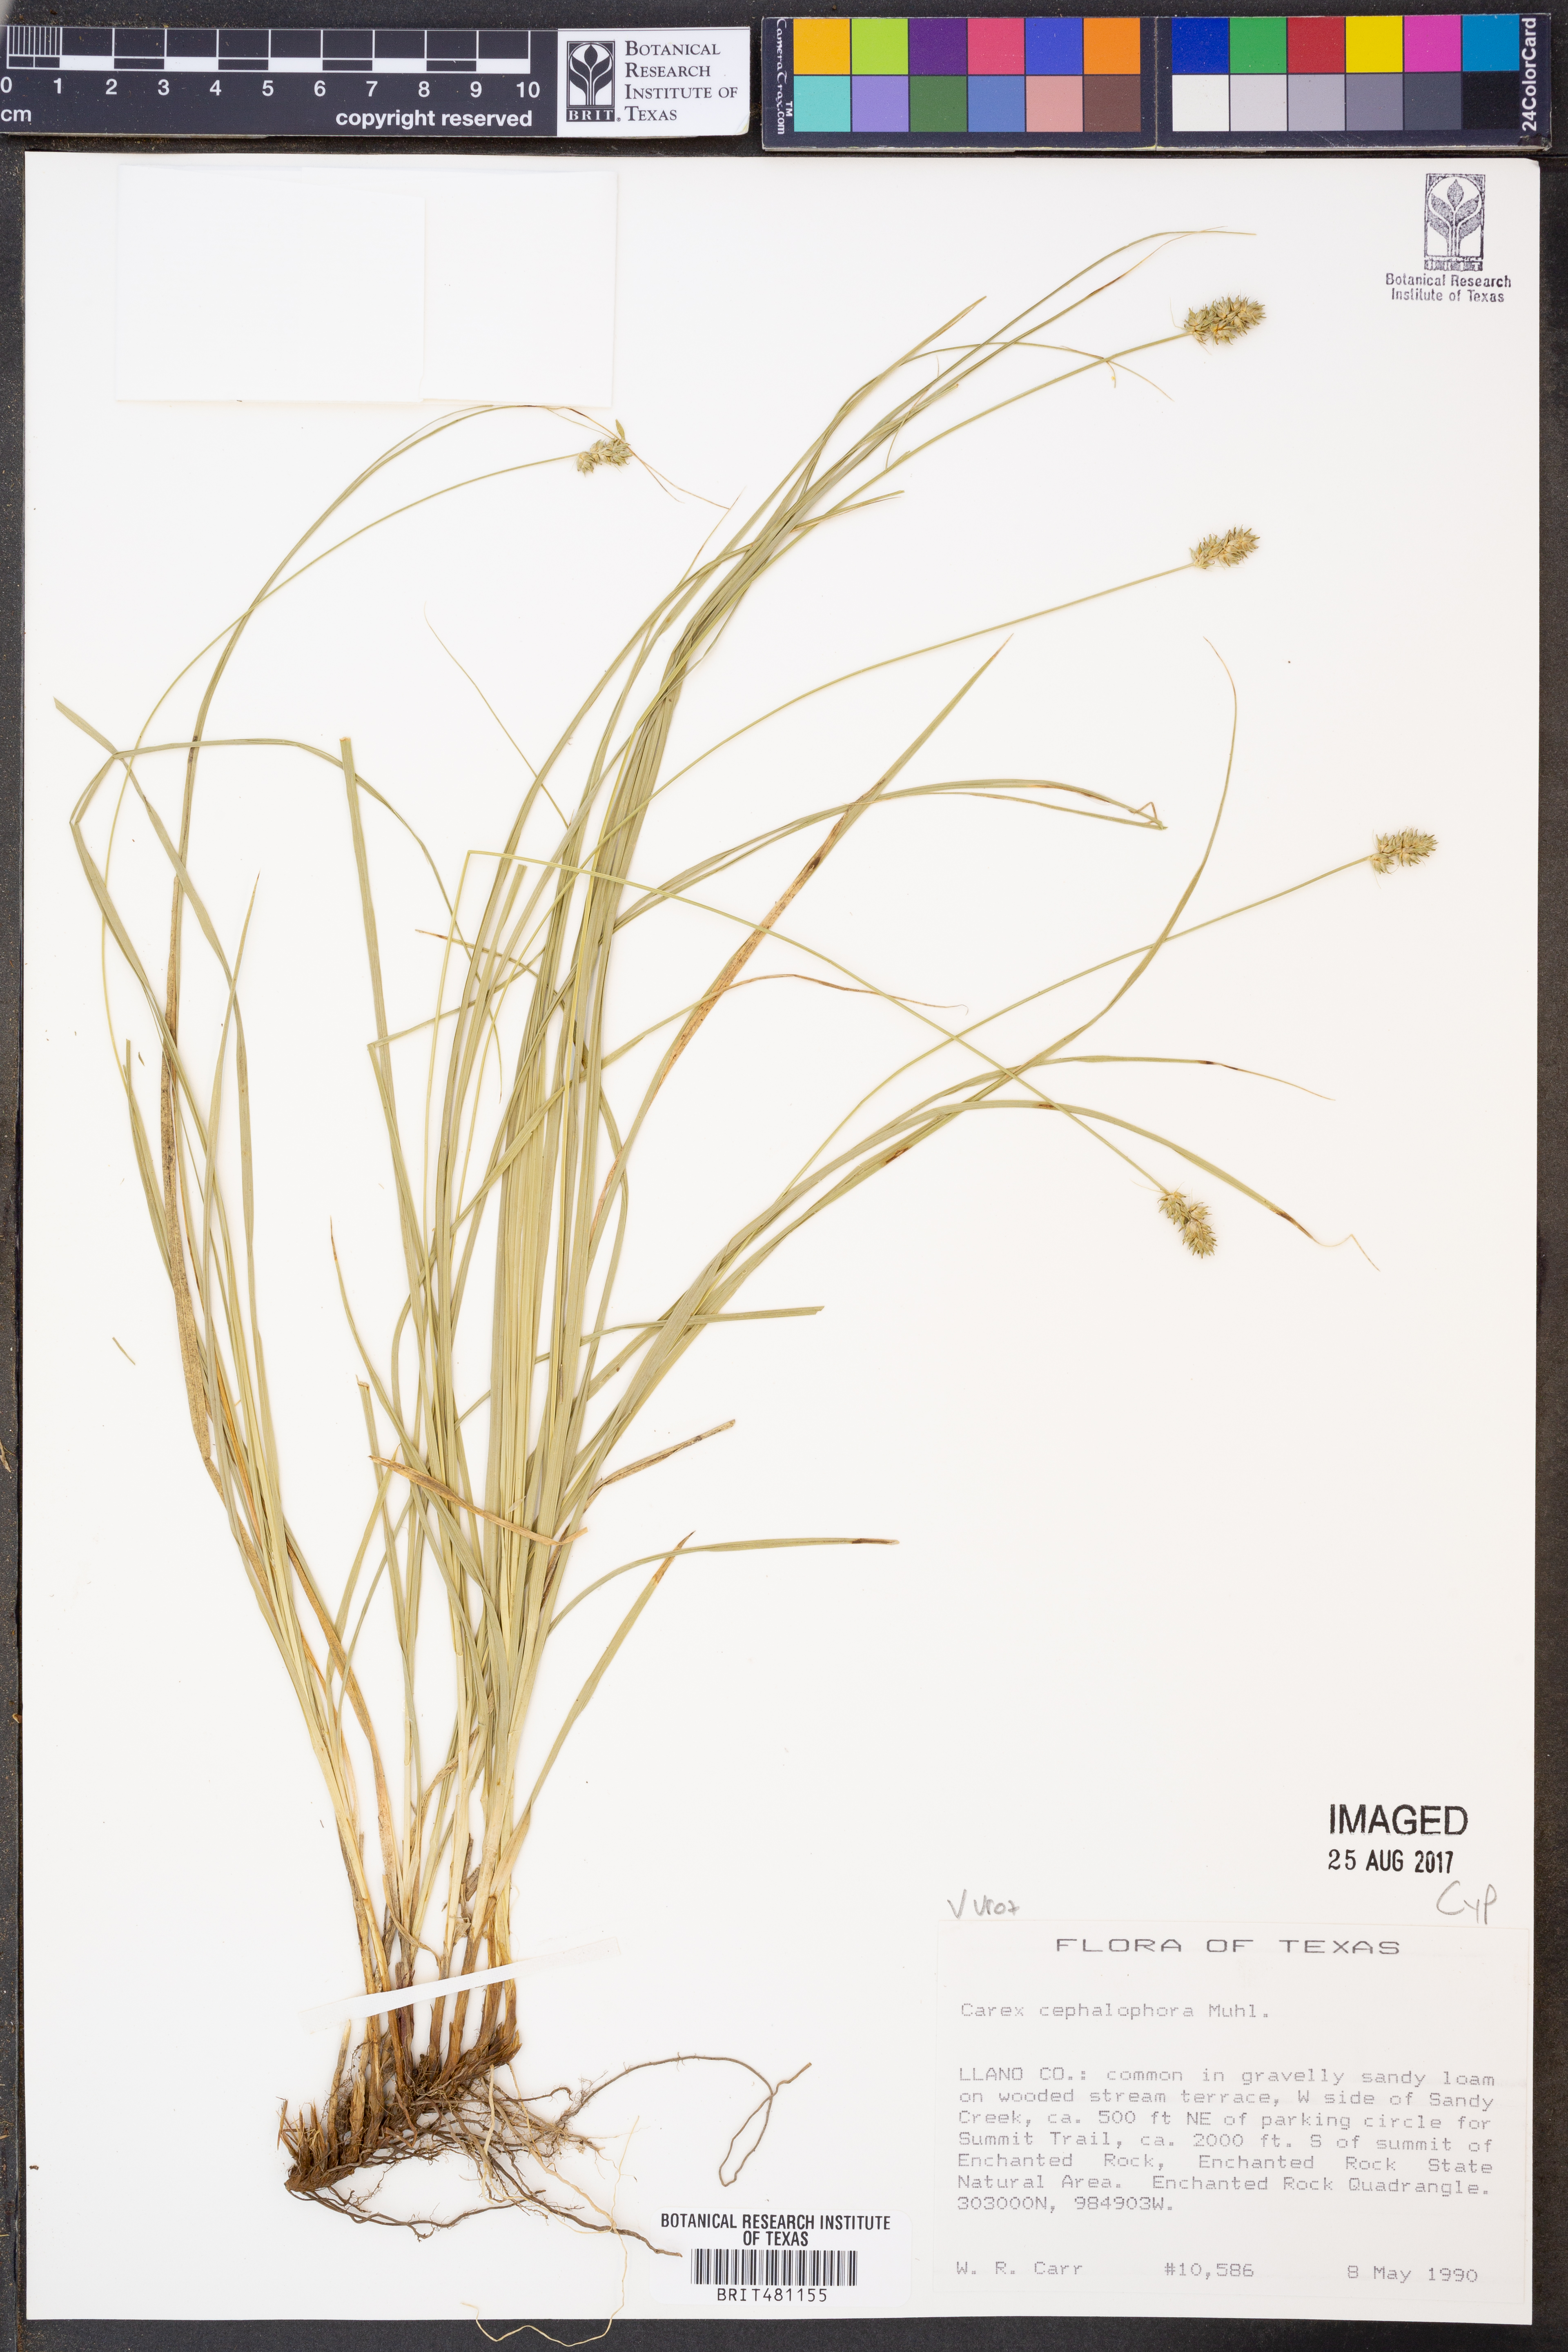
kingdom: Plantae
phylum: Tracheophyta
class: Liliopsida
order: Poales
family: Cyperaceae
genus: Carex
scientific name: Carex cephalophora
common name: Oval-headed sedge
